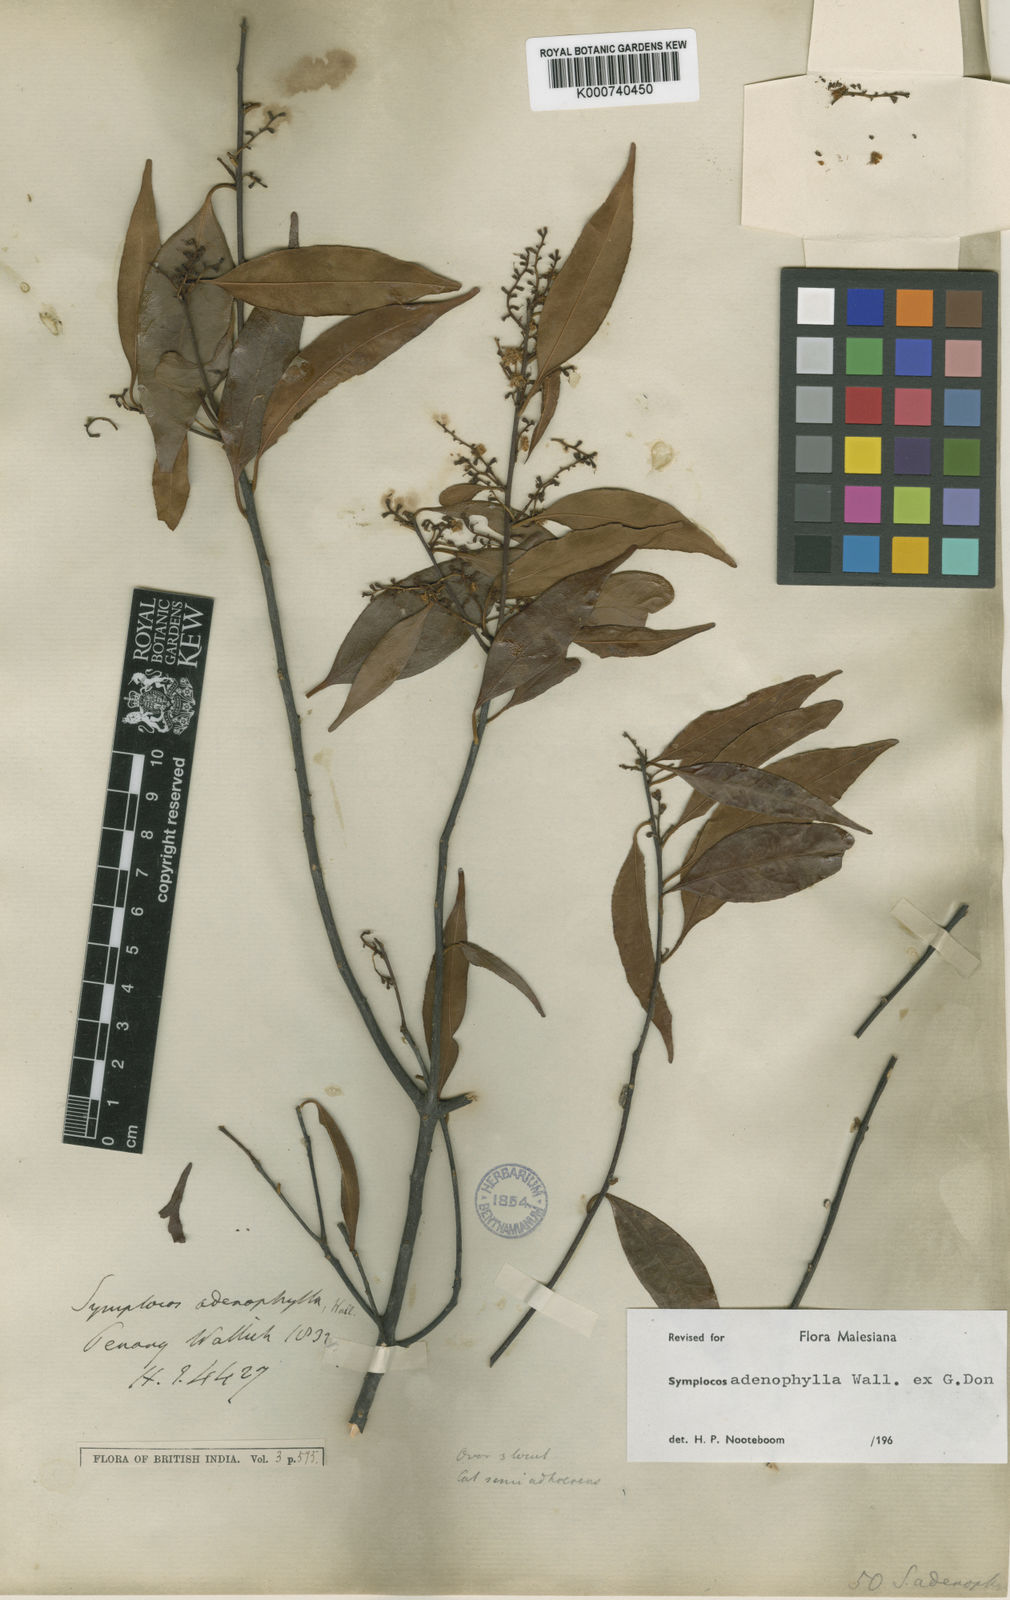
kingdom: Plantae
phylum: Tracheophyta
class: Magnoliopsida
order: Ericales
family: Symplocaceae
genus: Symplocos
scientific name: Symplocos
